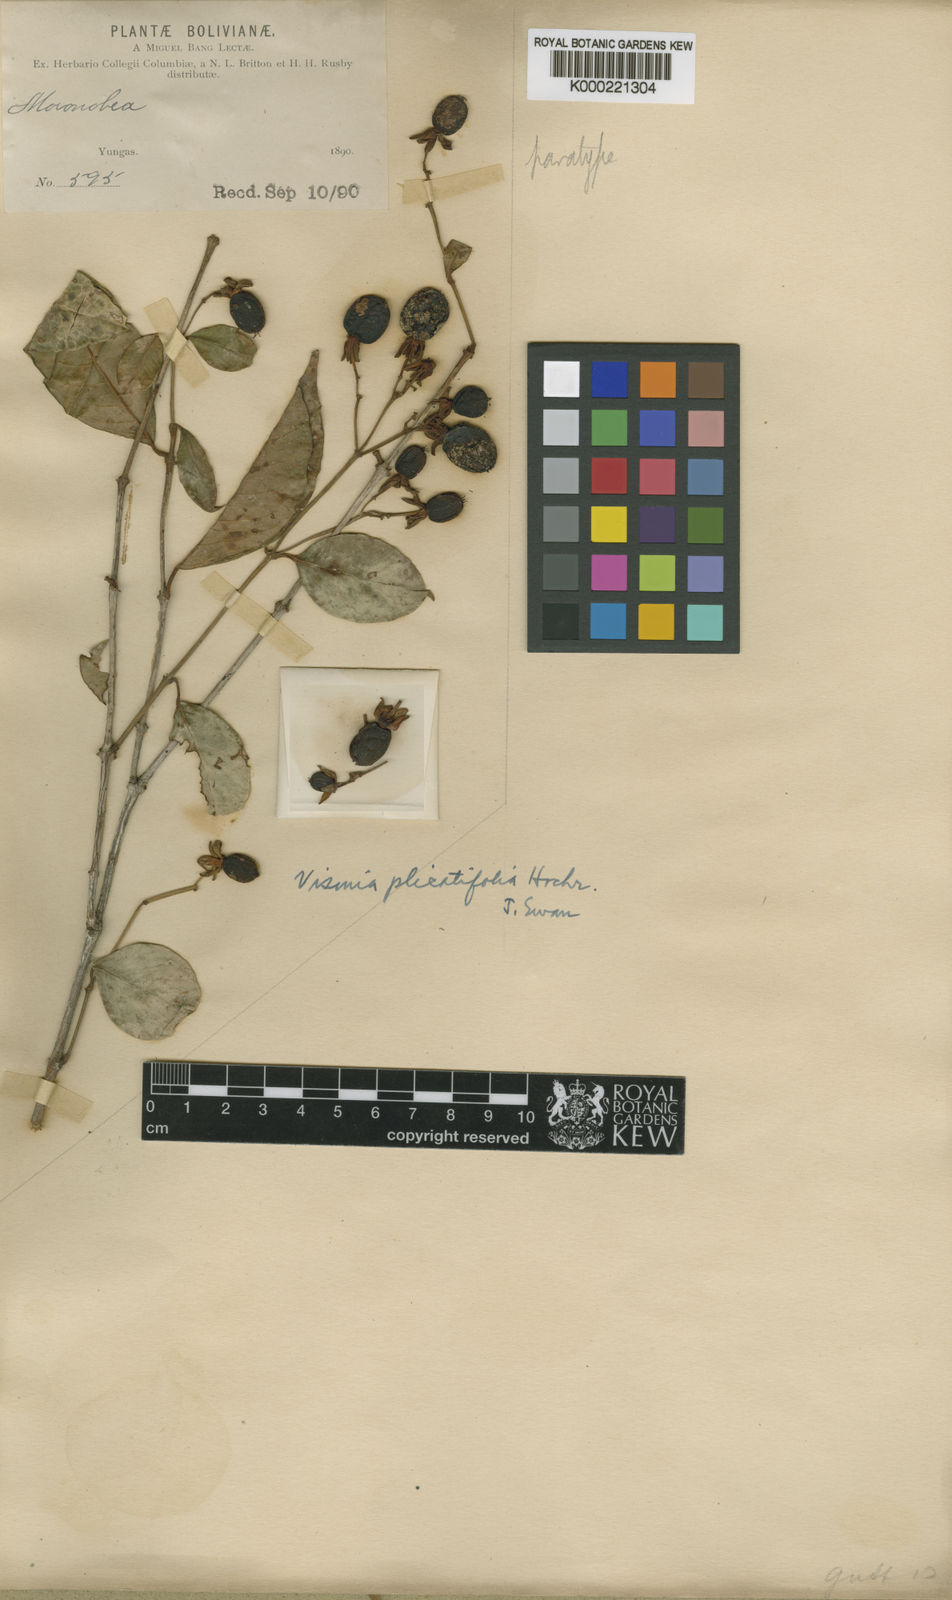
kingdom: Plantae
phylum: Tracheophyta
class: Magnoliopsida
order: Malpighiales
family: Hypericaceae
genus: Vismia
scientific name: Vismia plicatifolia
